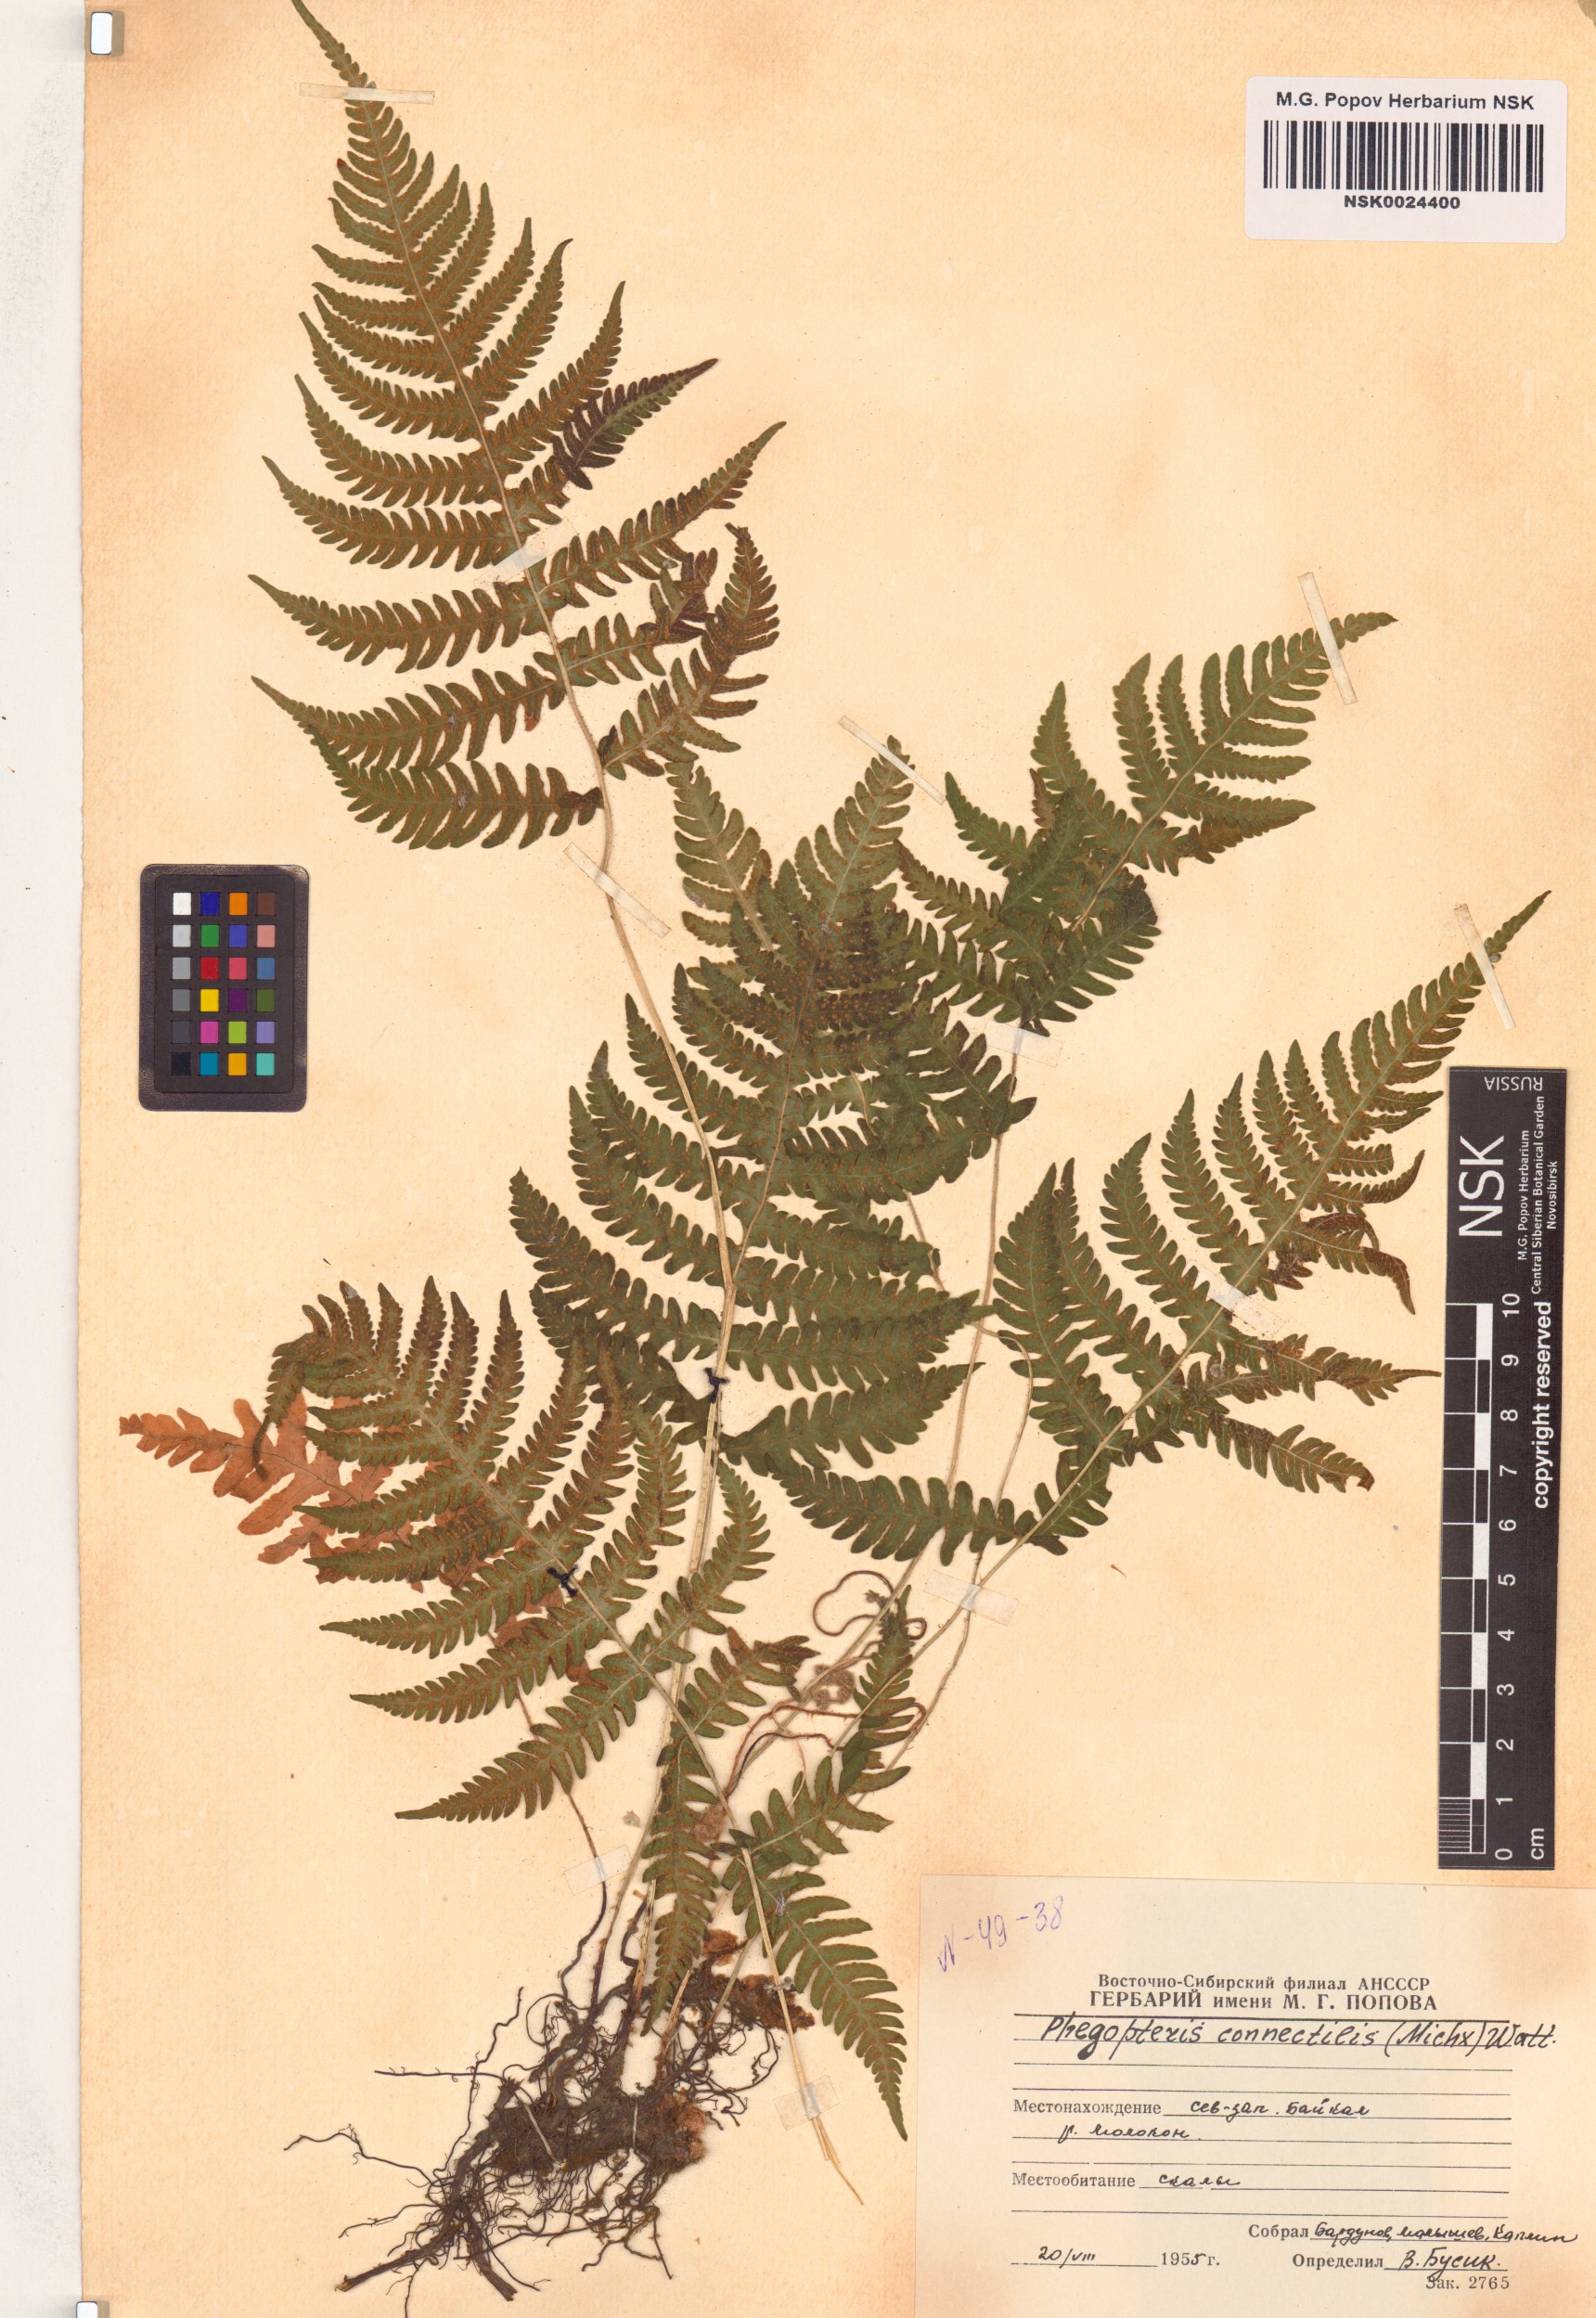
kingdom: Plantae
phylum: Tracheophyta
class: Polypodiopsida
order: Polypodiales
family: Thelypteridaceae
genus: Phegopteris
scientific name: Phegopteris connectilis
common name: Beech fern
